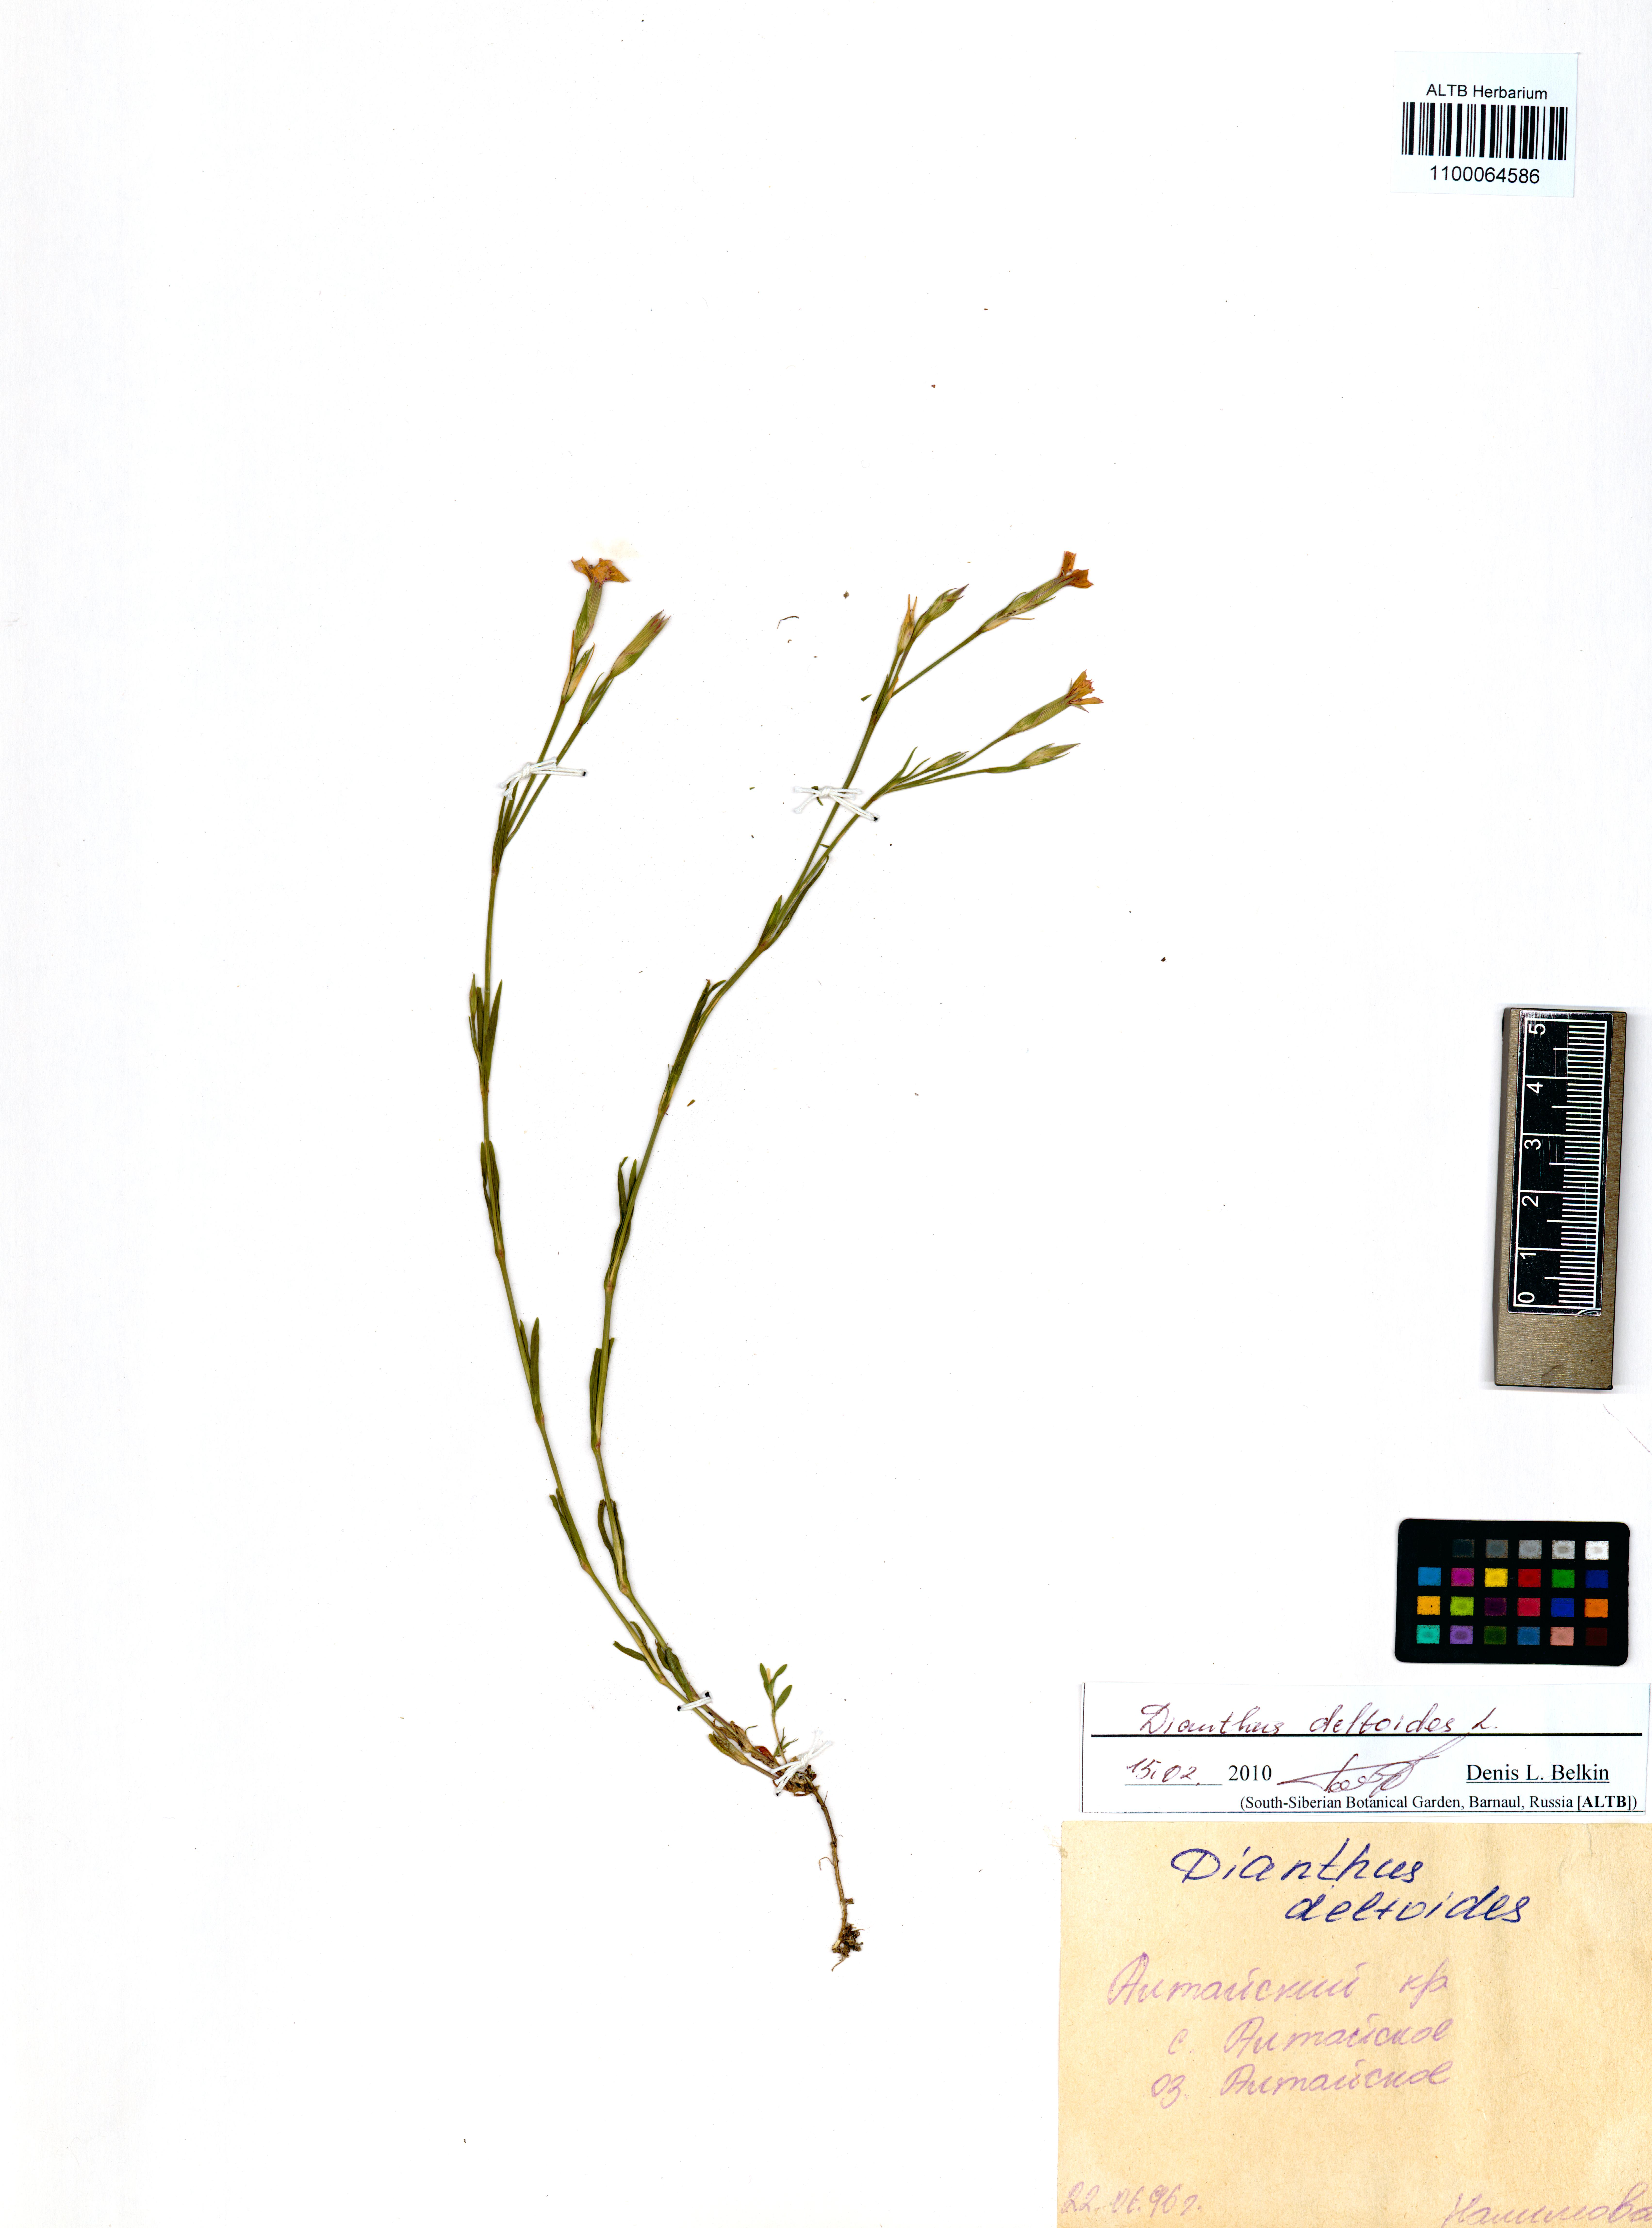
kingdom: Plantae
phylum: Tracheophyta
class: Magnoliopsida
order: Caryophyllales
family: Caryophyllaceae
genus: Dianthus
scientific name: Dianthus deltoides
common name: Maiden pink
